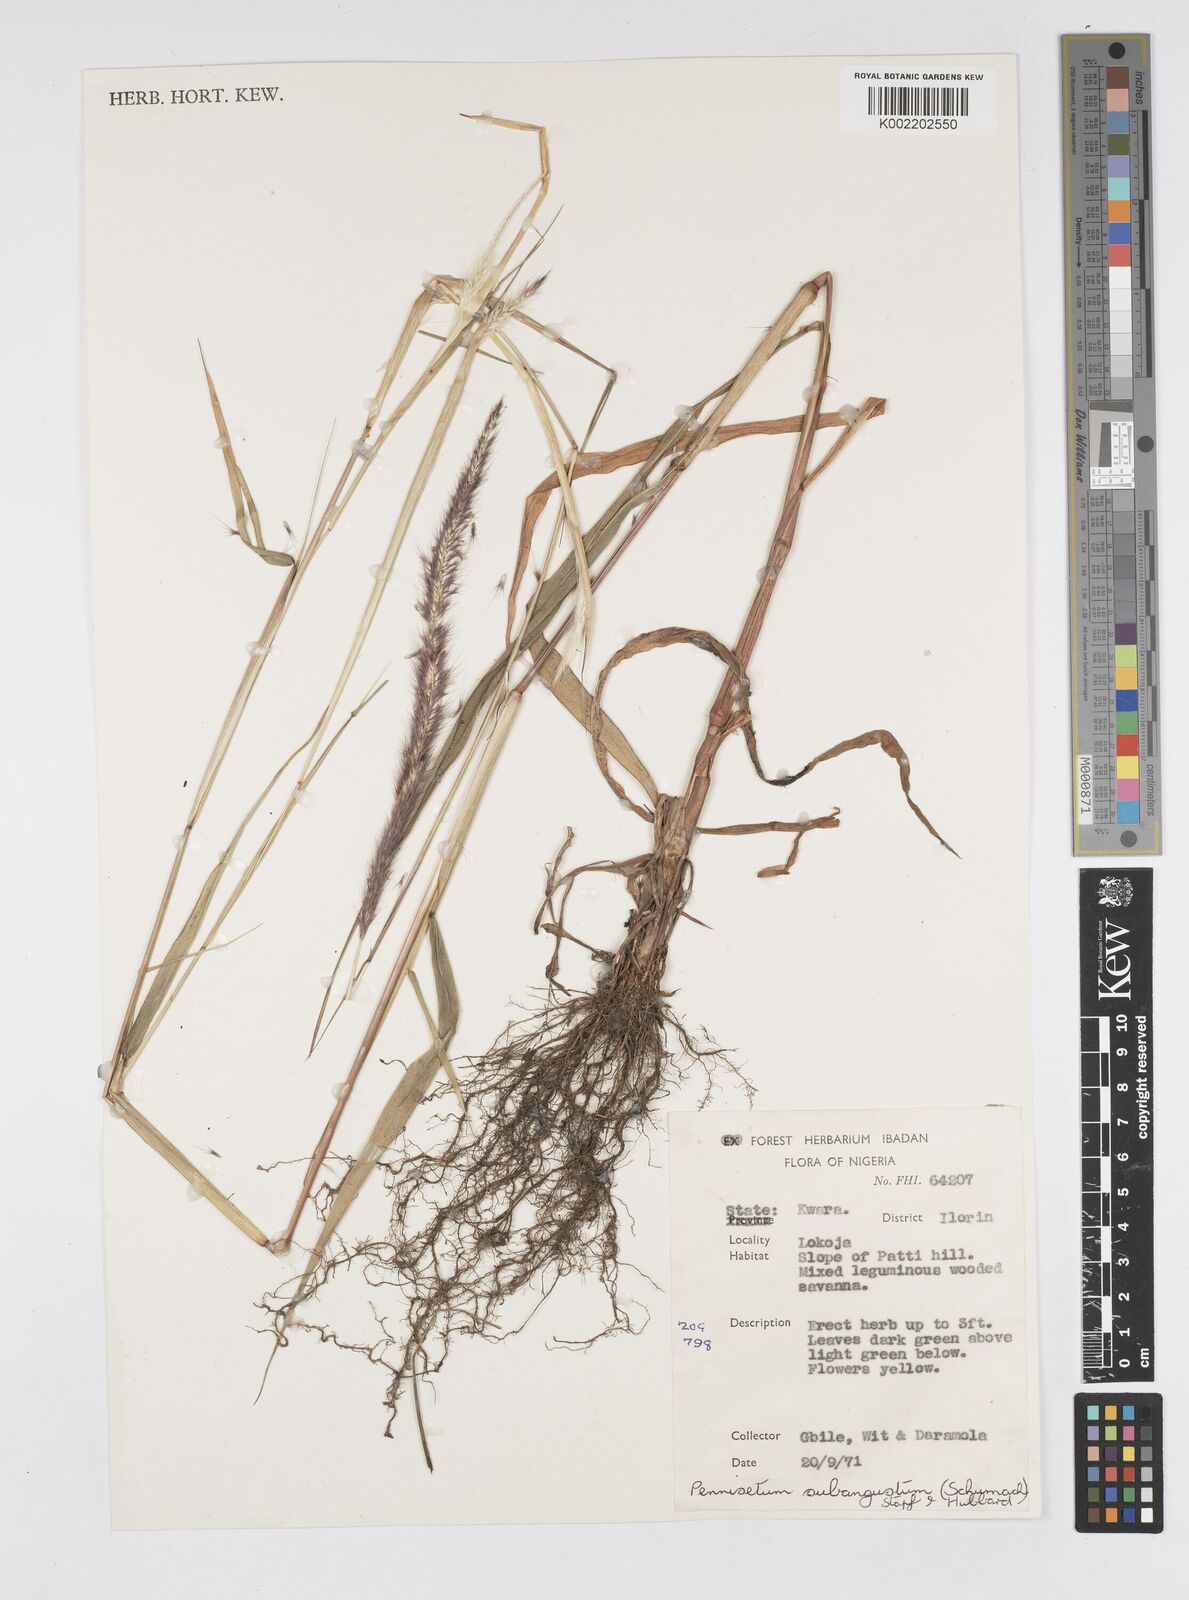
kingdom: Plantae
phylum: Tracheophyta
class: Liliopsida
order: Poales
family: Poaceae
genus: Setaria
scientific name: Setaria parviflora
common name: Knotroot bristle-grass
